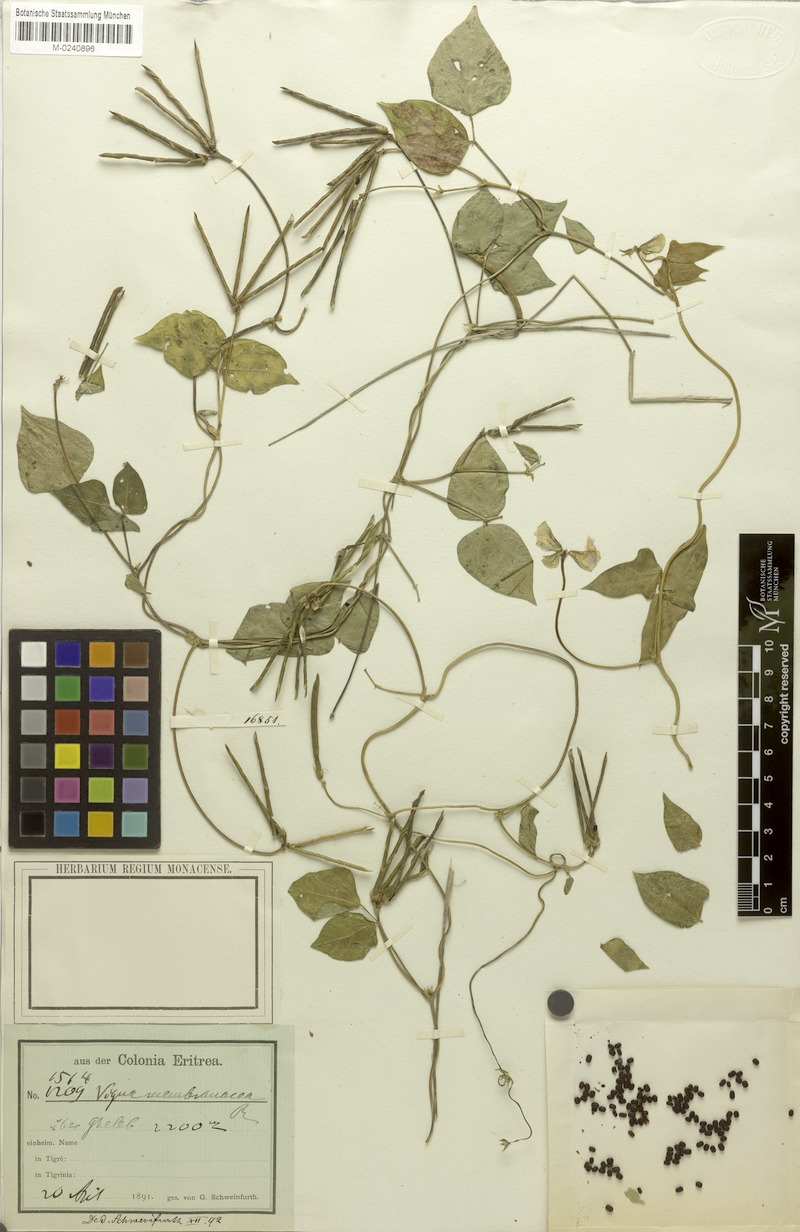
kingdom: Plantae
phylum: Tracheophyta
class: Magnoliopsida
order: Fabales
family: Fabaceae
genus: Vigna
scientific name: Vigna membranacea
